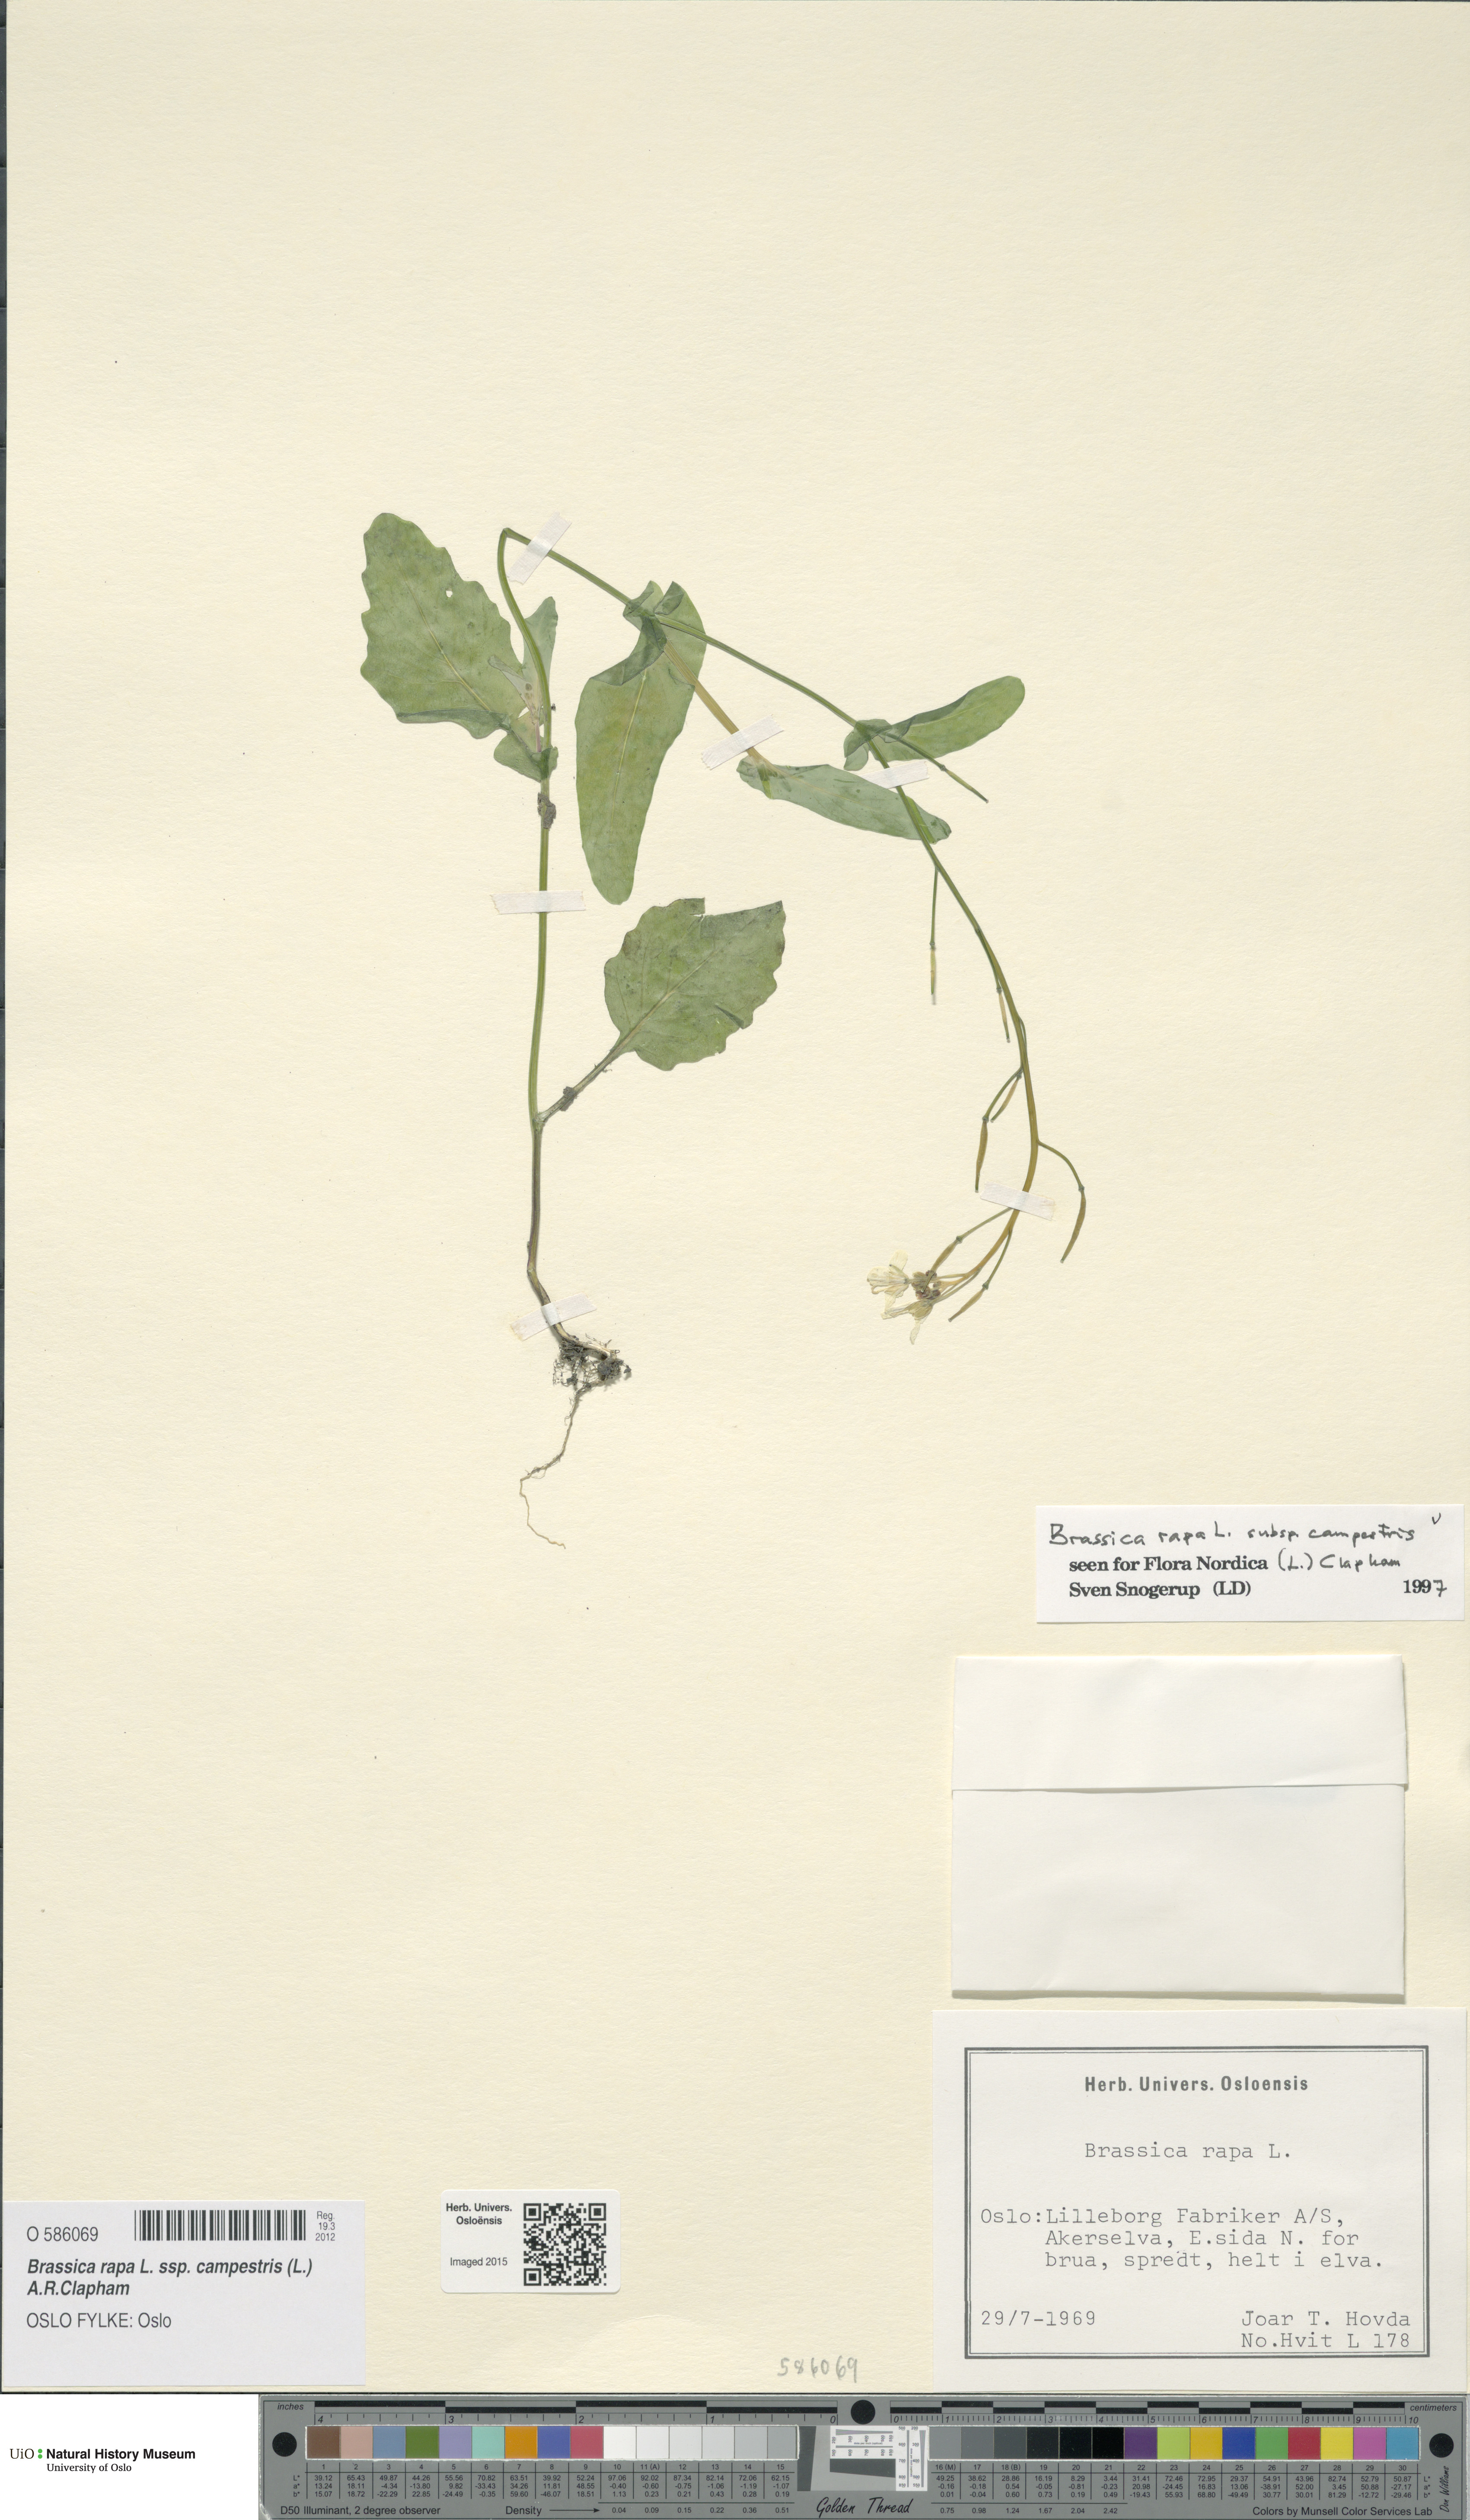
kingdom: Plantae
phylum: Tracheophyta
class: Magnoliopsida
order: Brassicales
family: Brassicaceae
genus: Brassica
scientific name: Brassica rapa
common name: Field mustard
